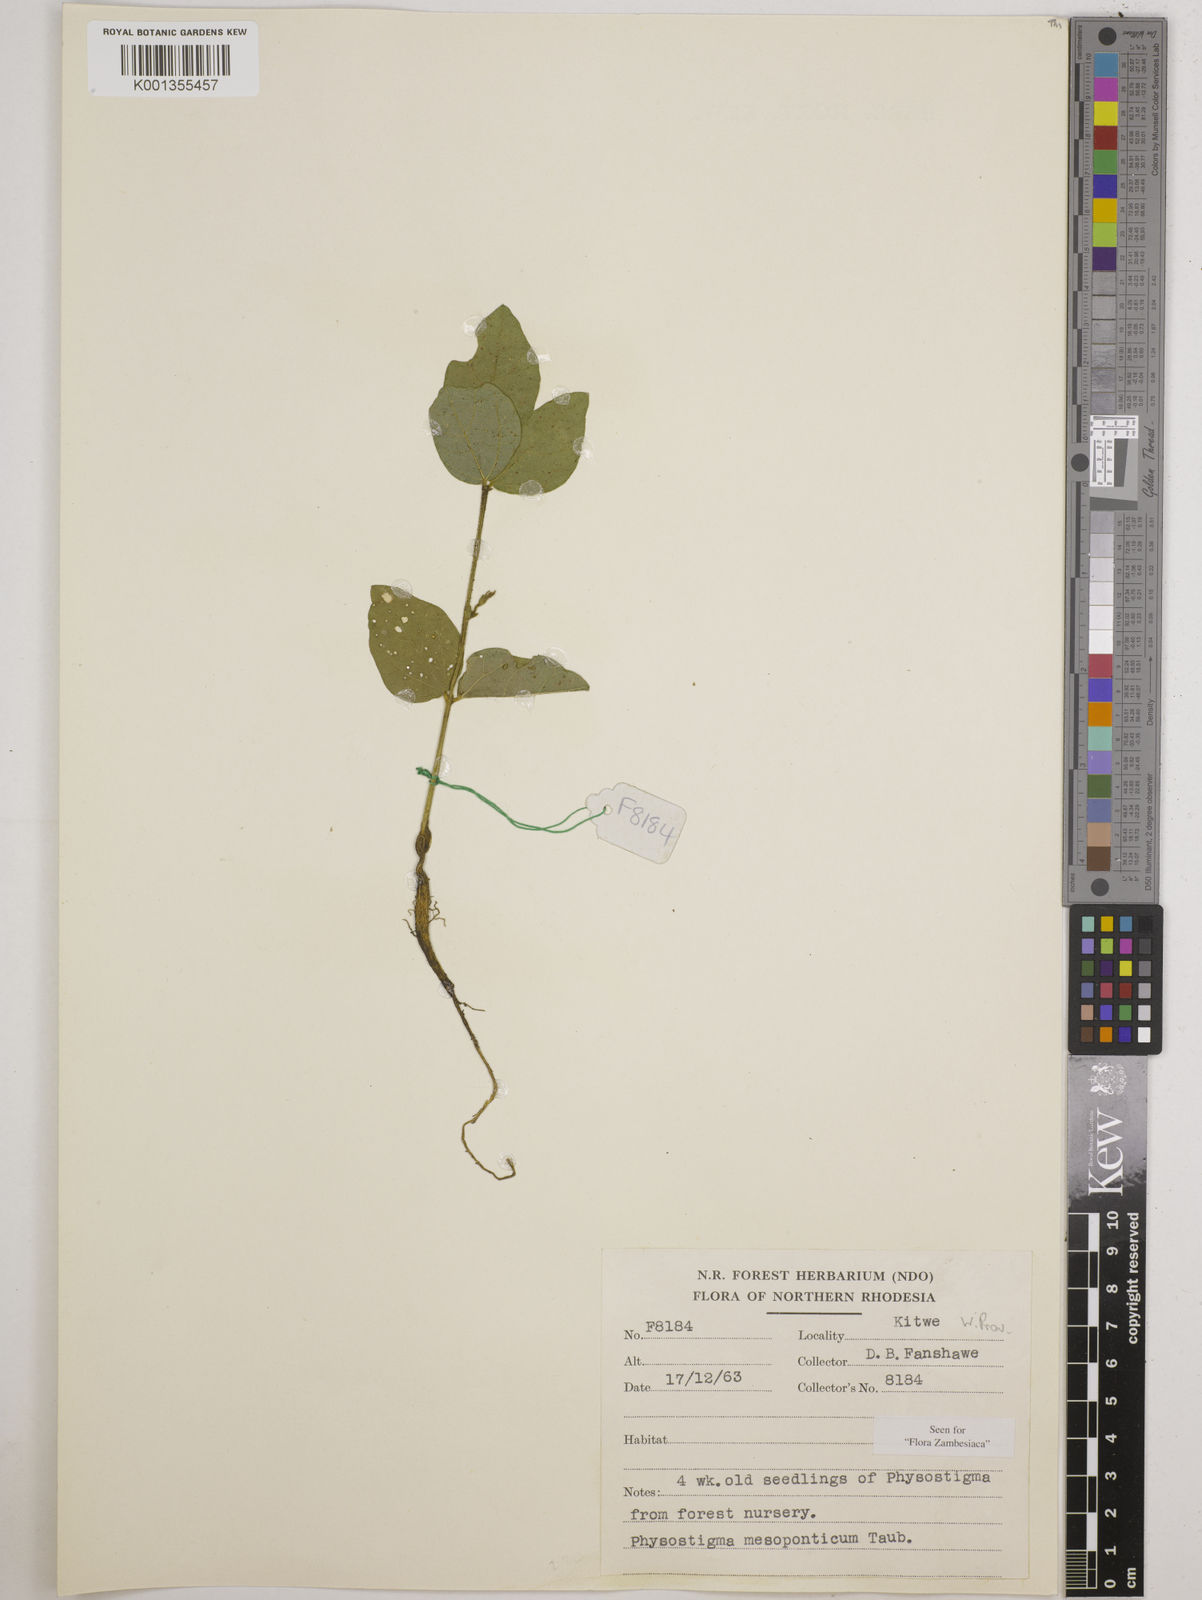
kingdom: Plantae
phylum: Tracheophyta
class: Magnoliopsida
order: Fabales
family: Fabaceae
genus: Physostigma
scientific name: Physostigma mesoponticum
